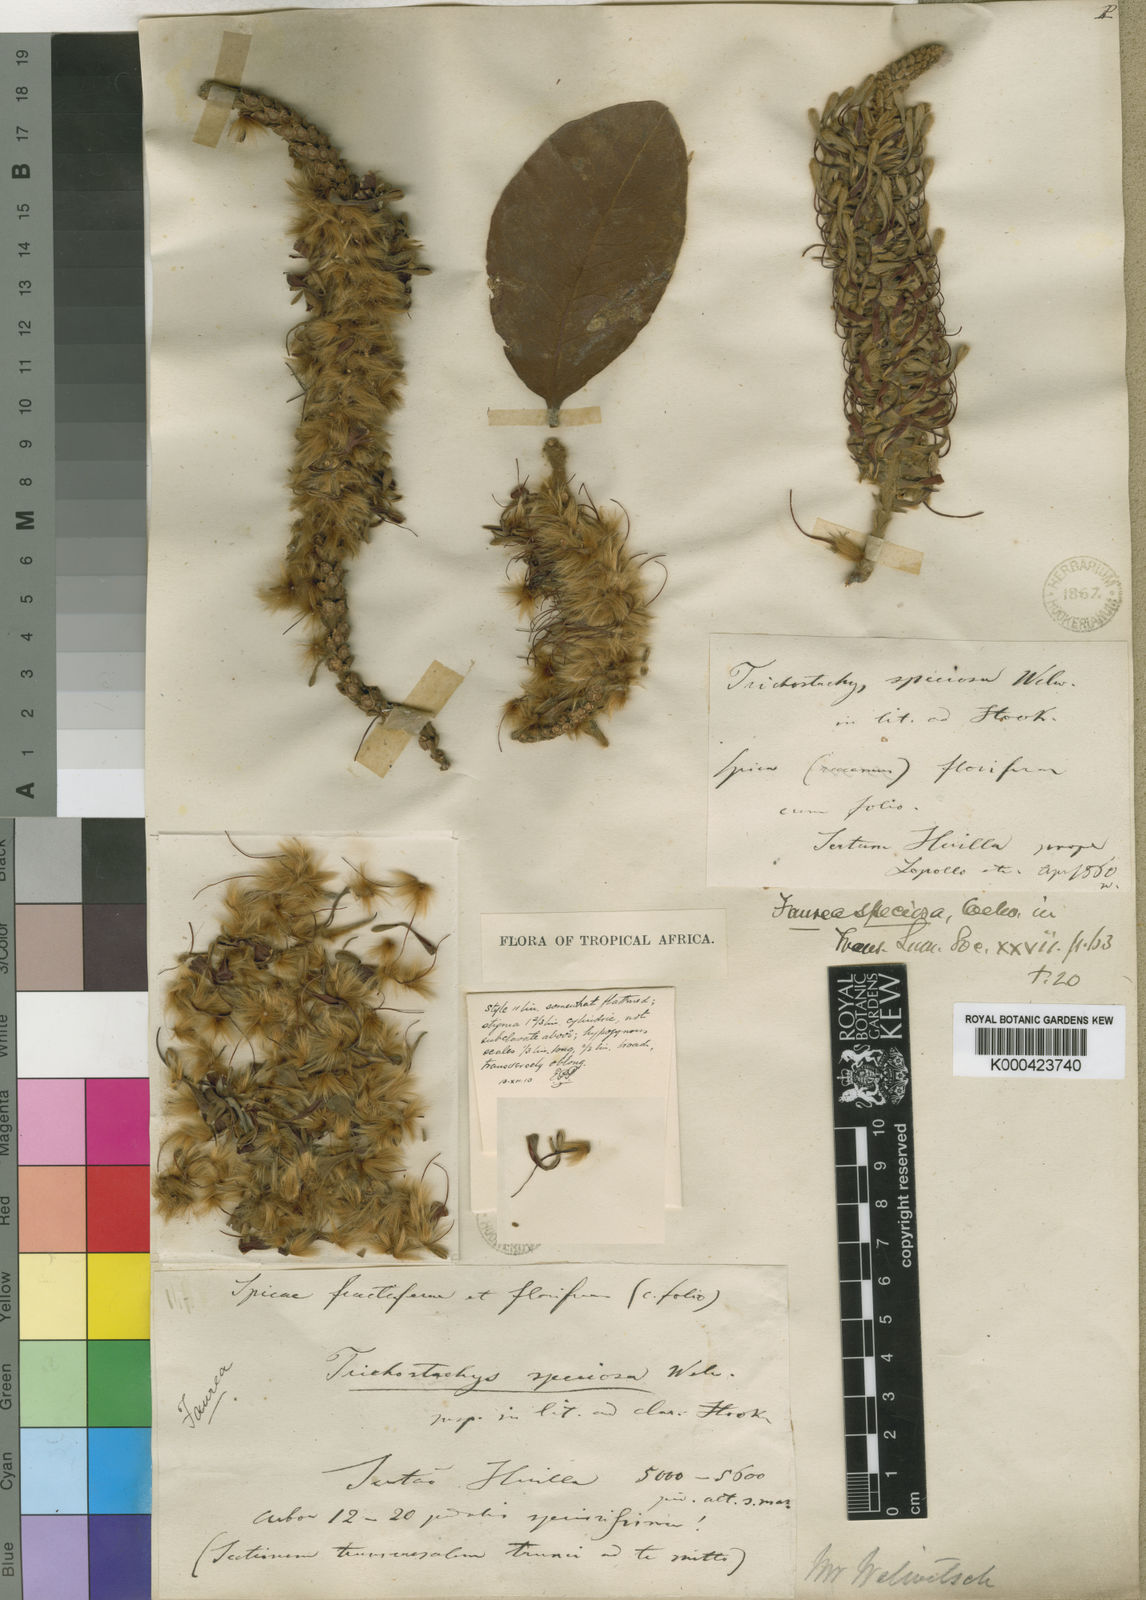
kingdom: Plantae
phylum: Tracheophyta
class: Magnoliopsida
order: Proteales
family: Proteaceae
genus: Faurea
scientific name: Faurea rochetiana
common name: Broad-leaved beech
